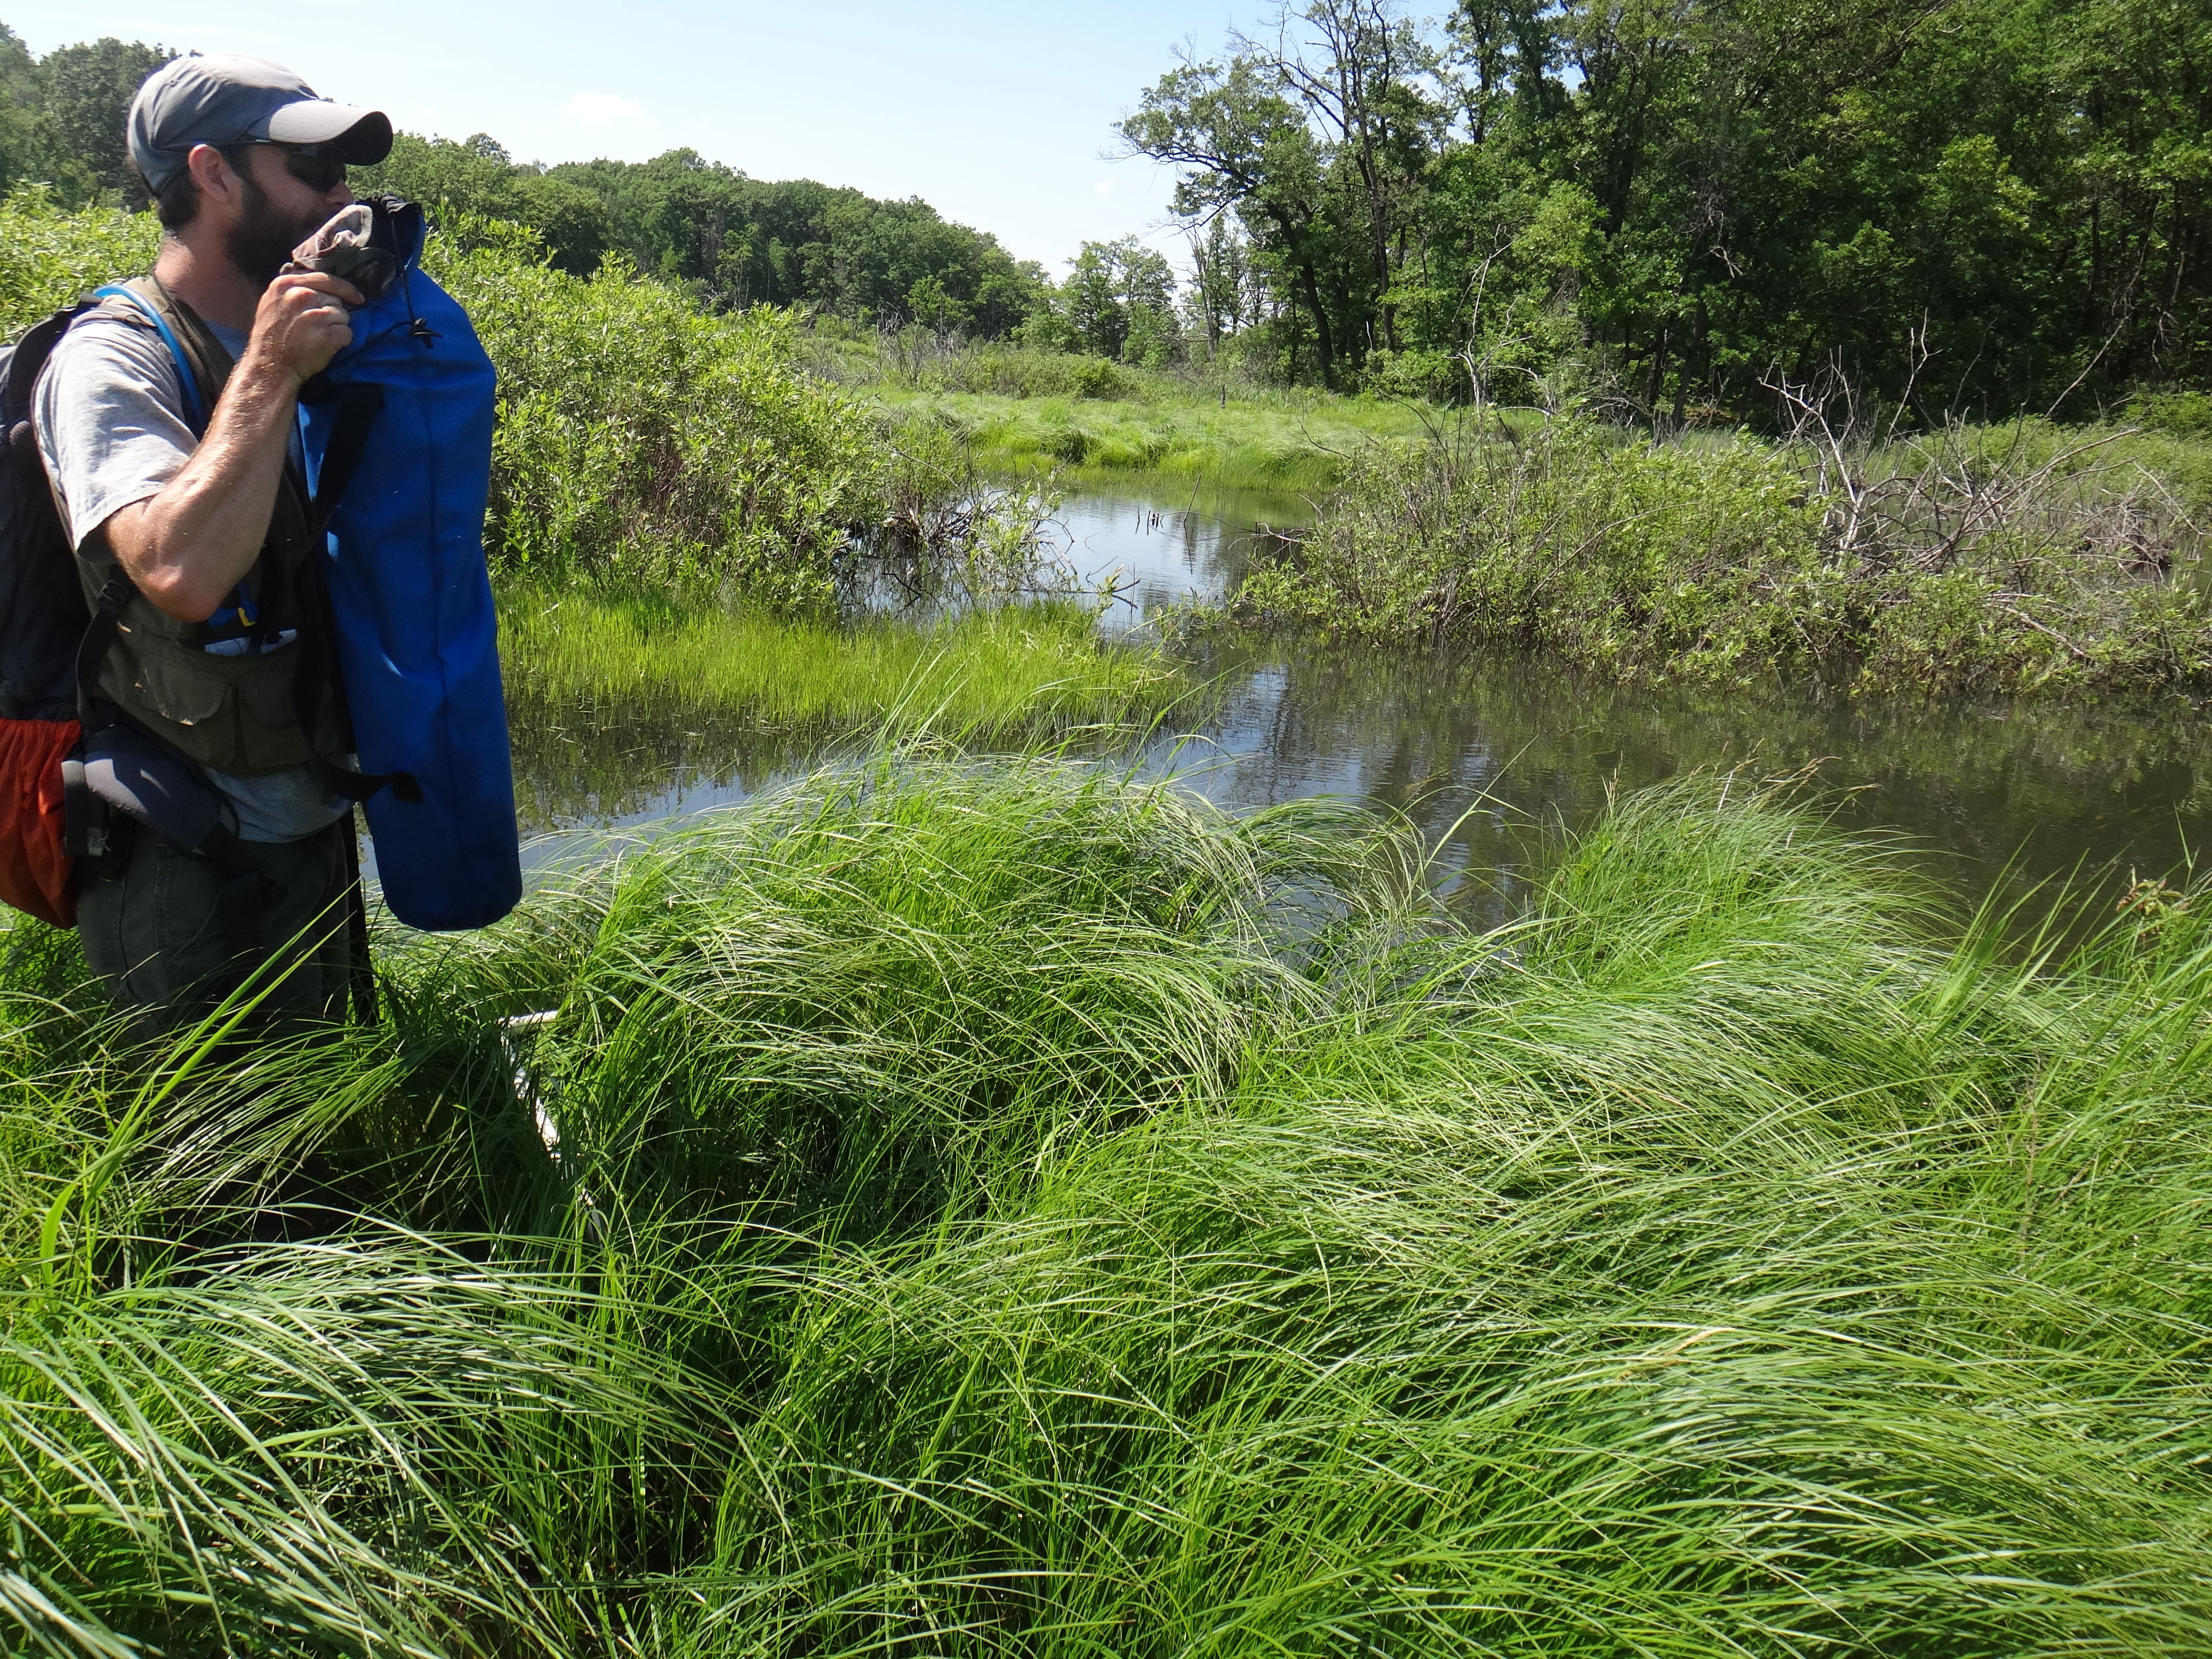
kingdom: Plantae
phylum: Tracheophyta
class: Magnoliopsida
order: Lamiales
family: Lamiaceae
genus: Lycopus
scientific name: Lycopus uniflorus
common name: Northern bugleweed
